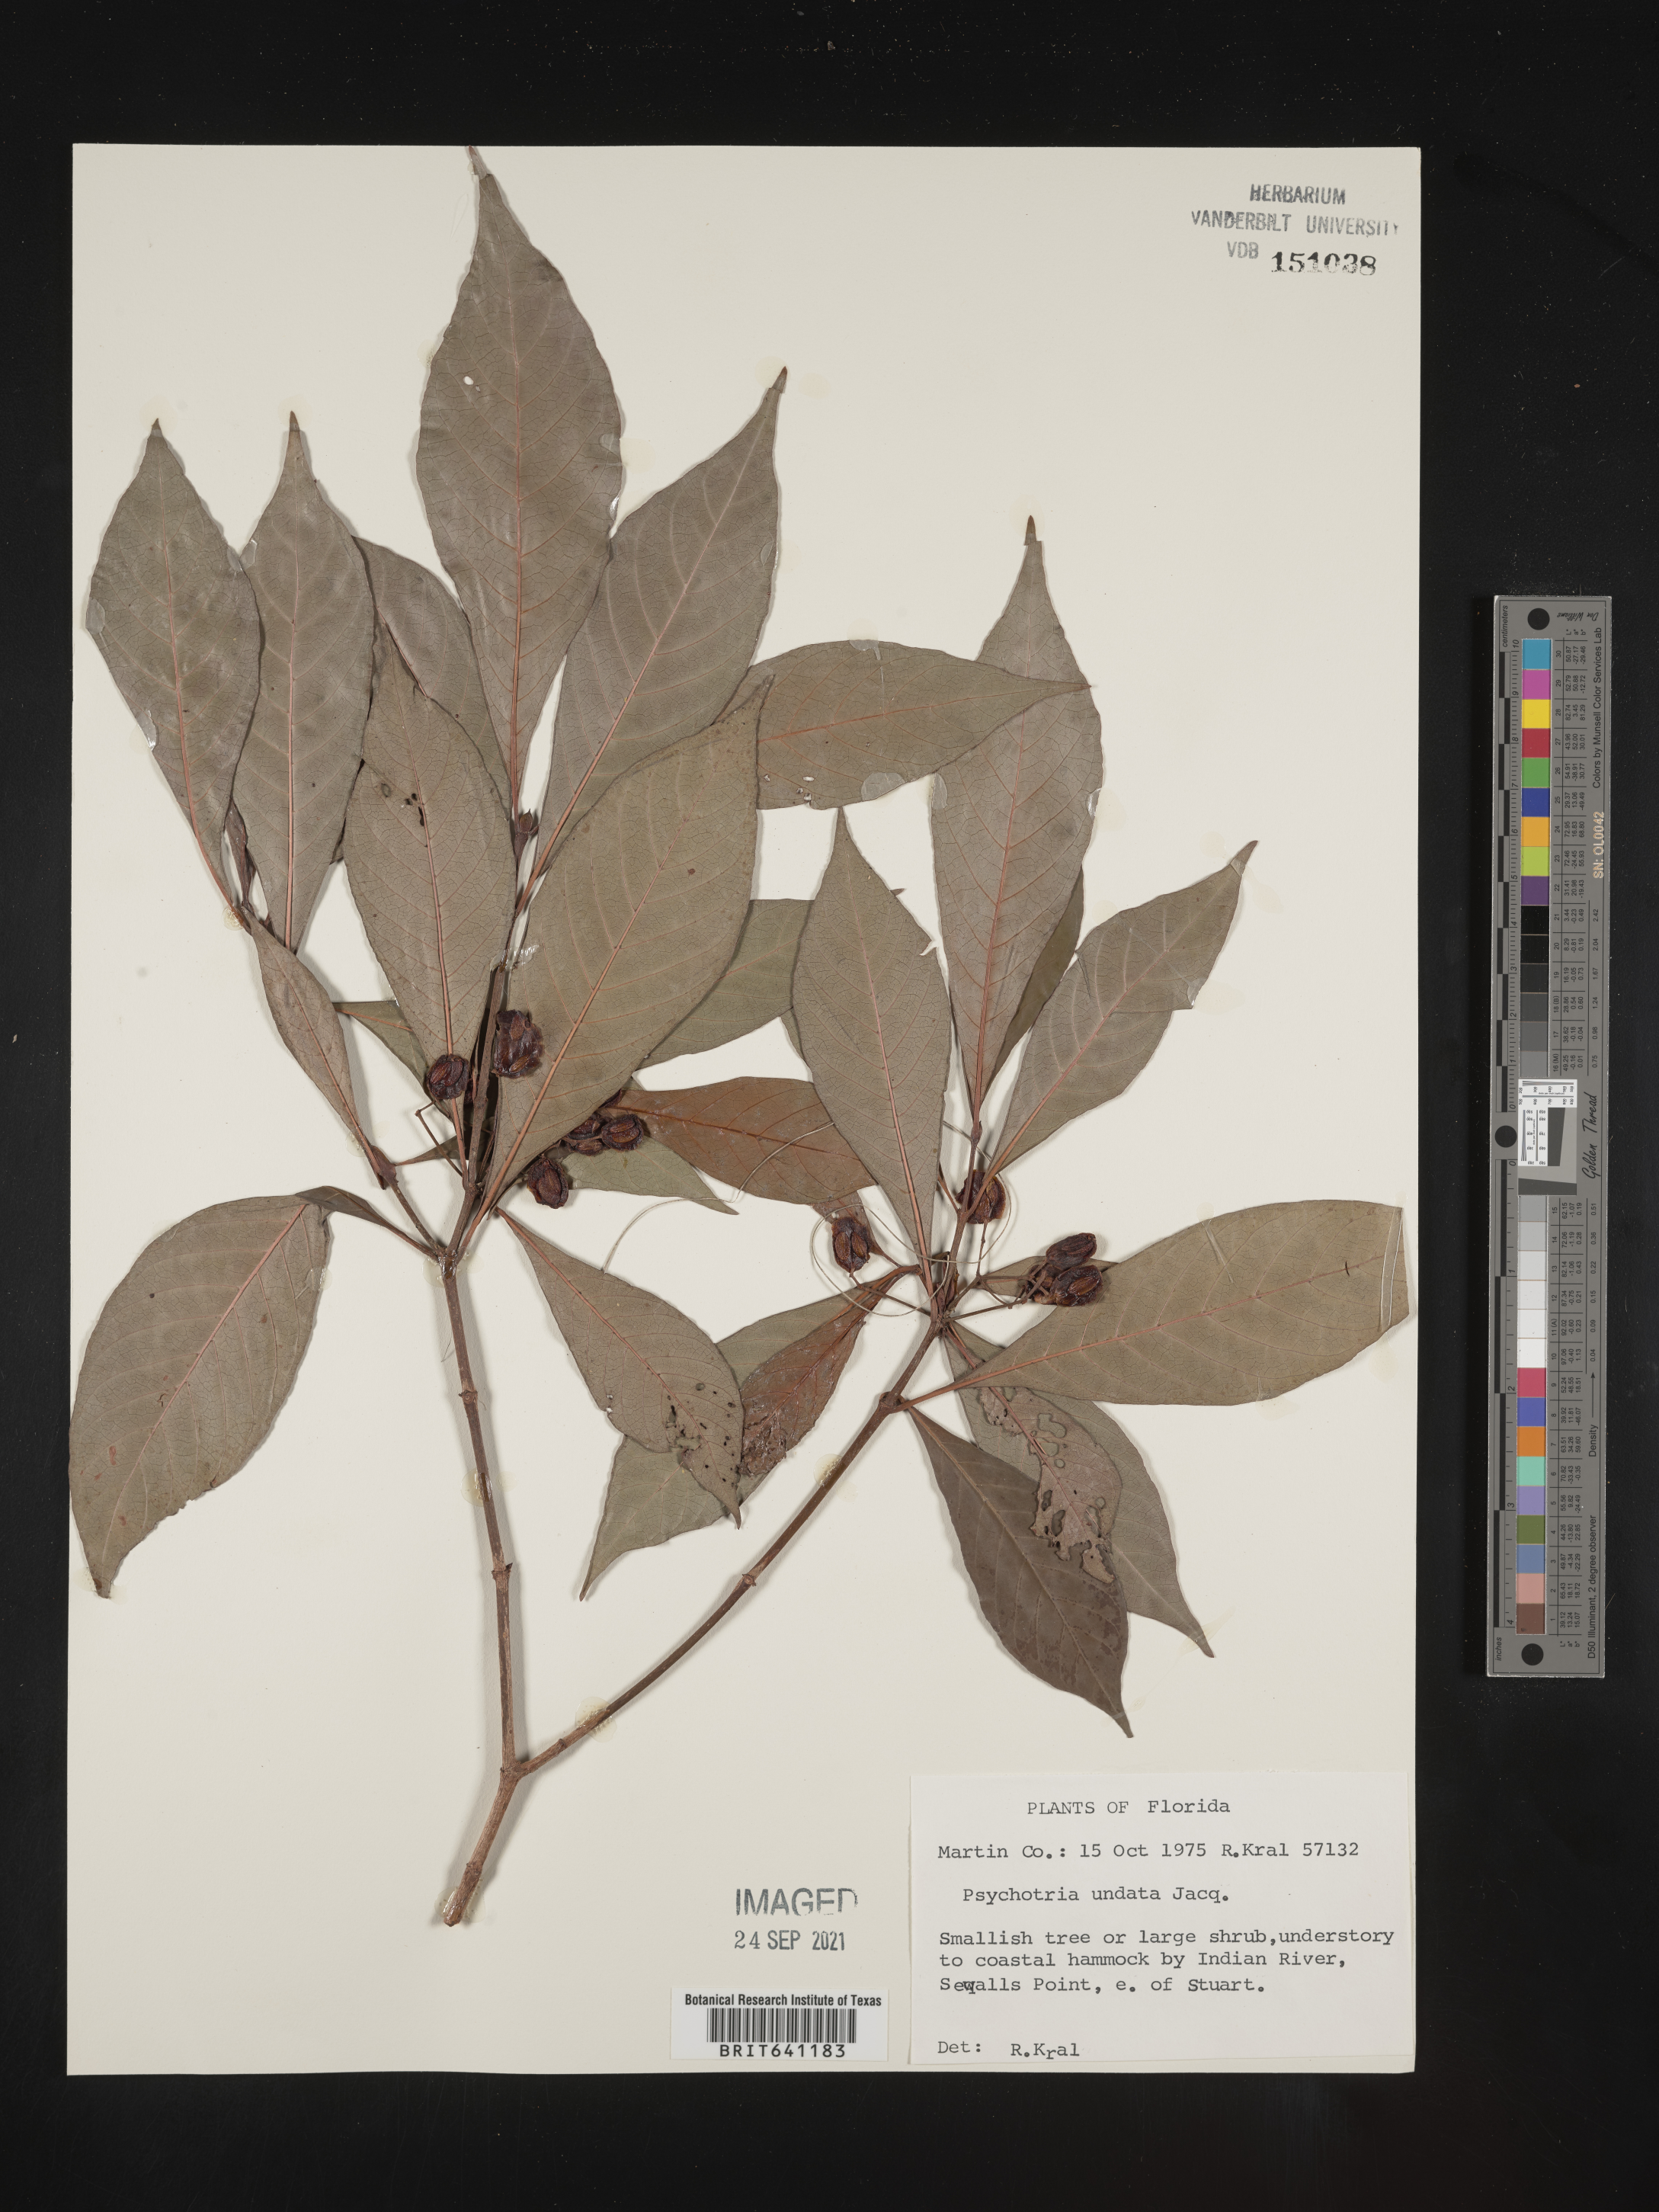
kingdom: Plantae
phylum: Tracheophyta
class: Magnoliopsida
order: Gentianales
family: Rubiaceae
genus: Psychotria
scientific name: Psychotria nervosa
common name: Bastard cankerberry
